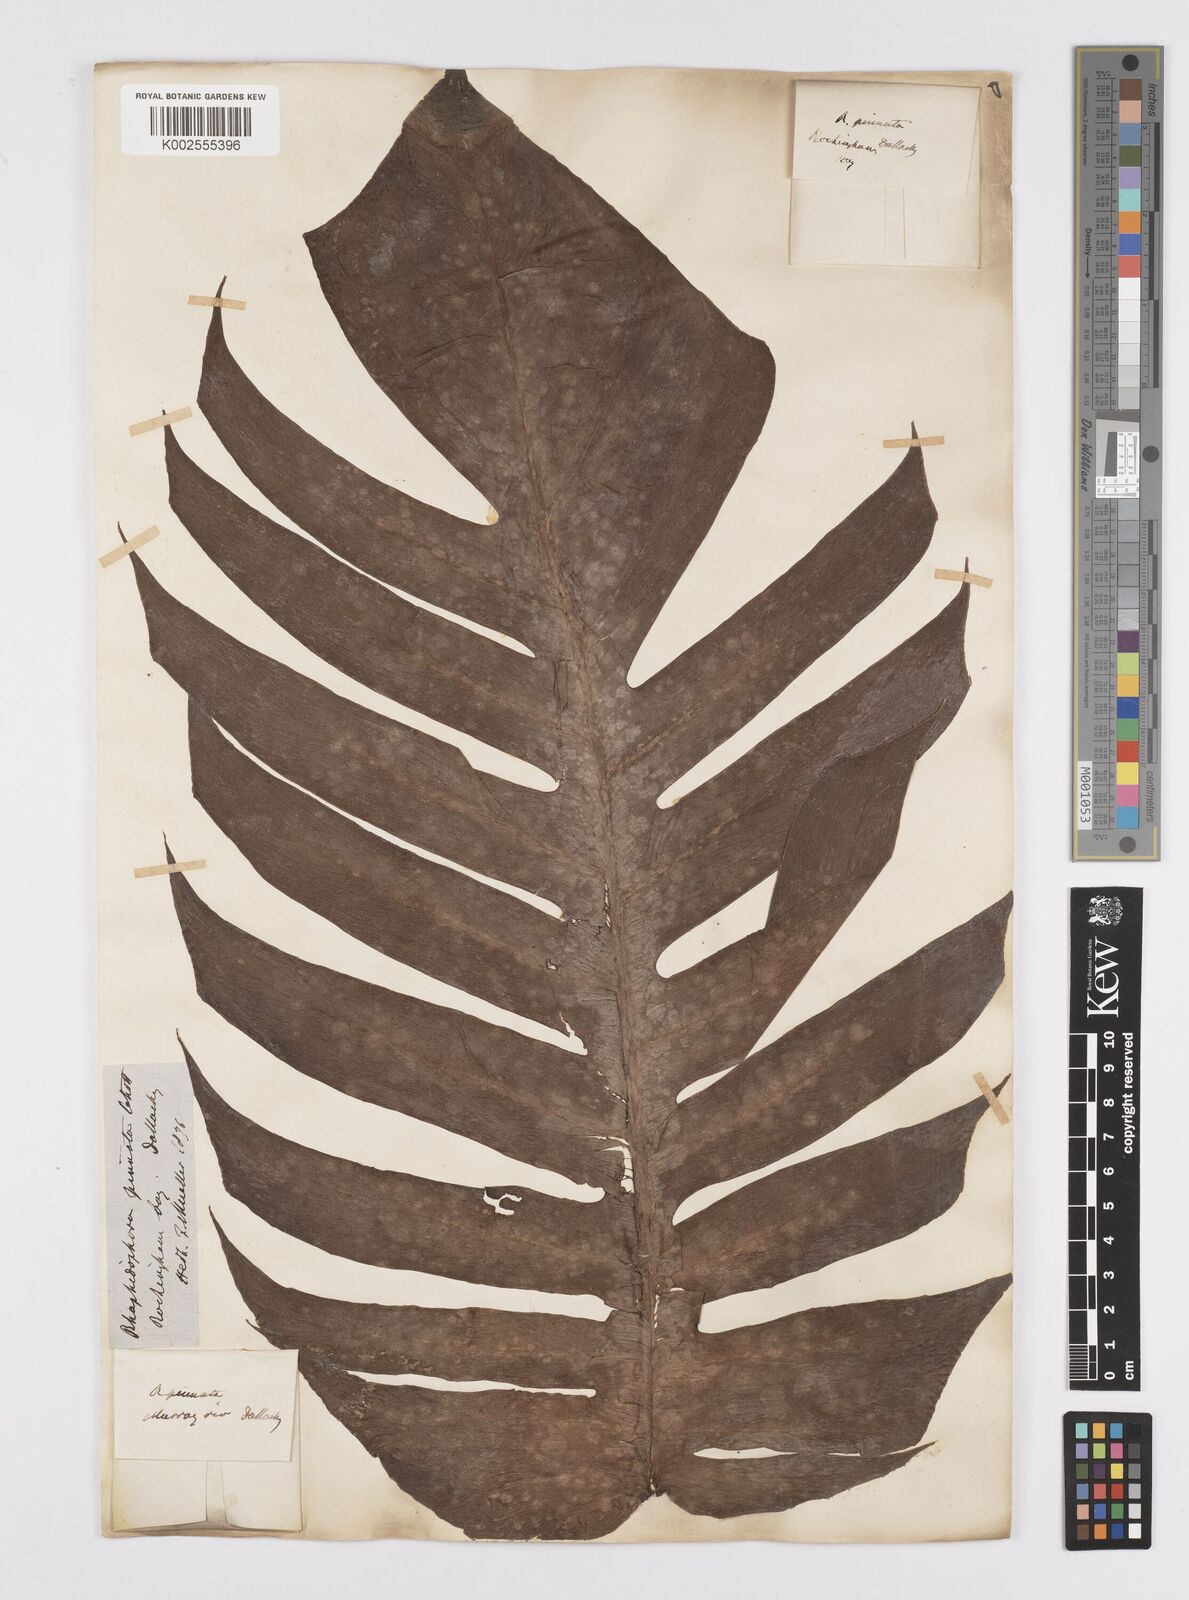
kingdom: Plantae
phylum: Tracheophyta
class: Liliopsida
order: Alismatales
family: Araceae
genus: Epipremnum
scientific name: Epipremnum pinnatum
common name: Centipede tongavine
